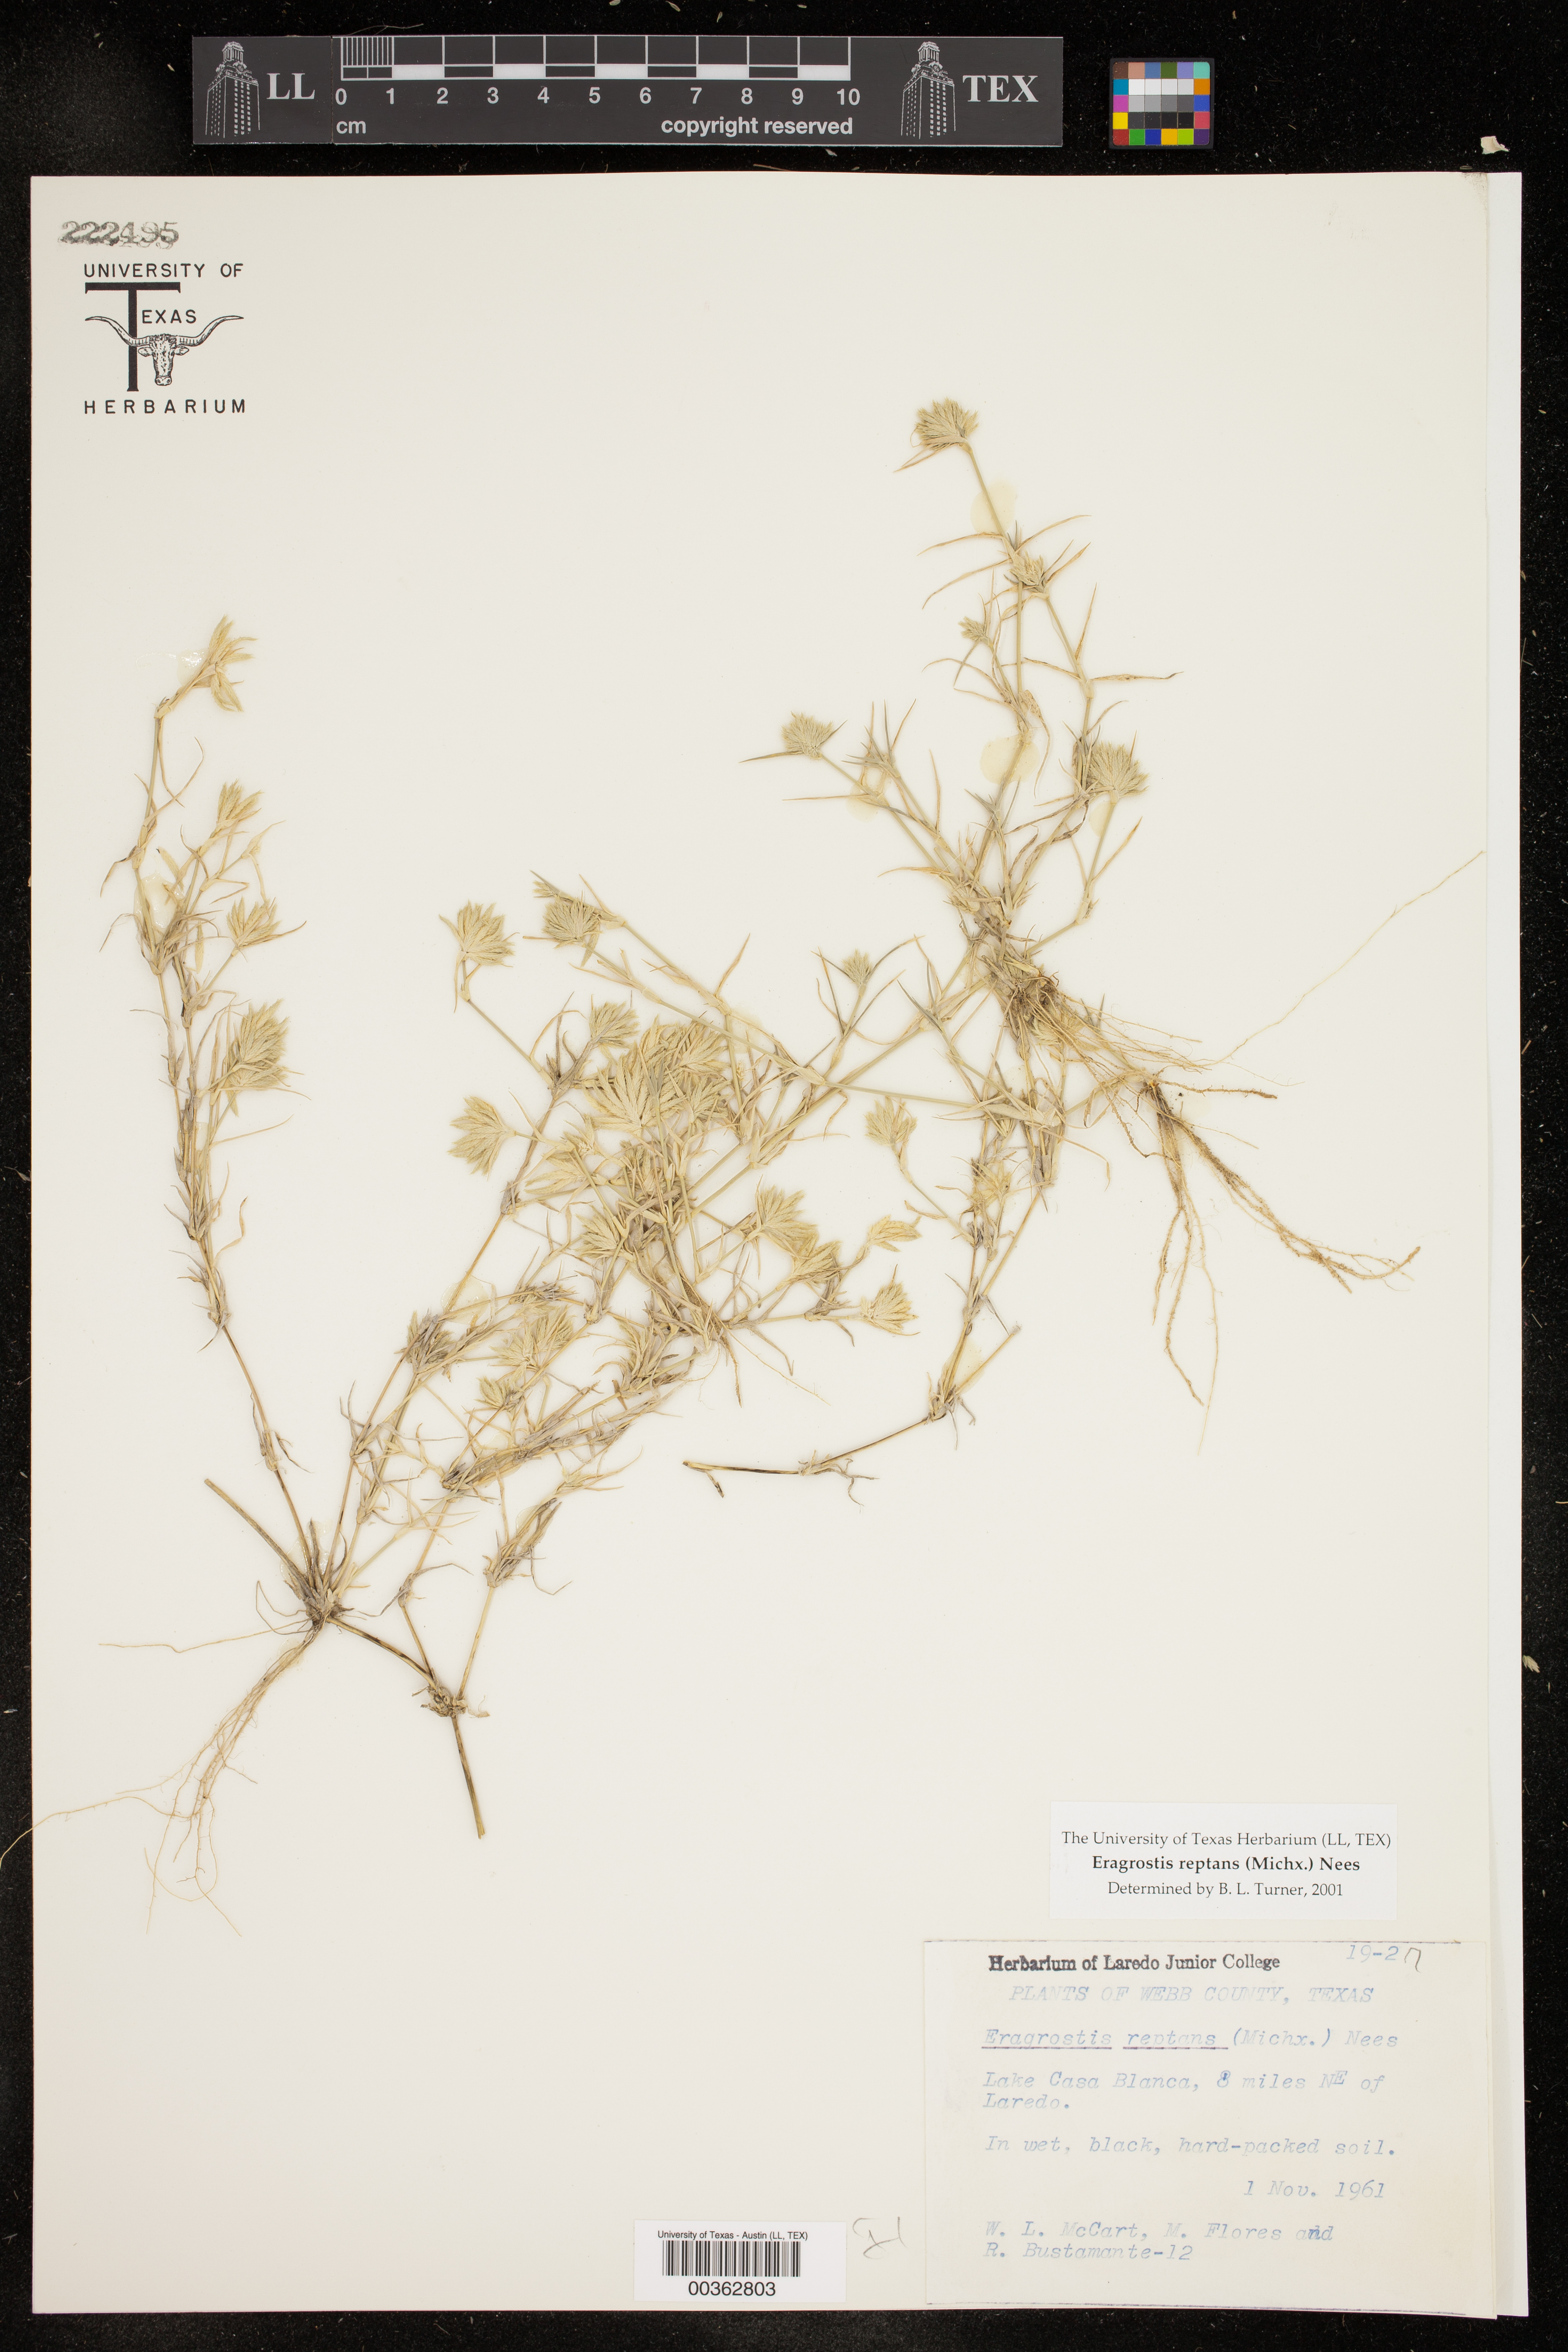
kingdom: Plantae
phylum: Tracheophyta
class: Liliopsida
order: Poales
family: Poaceae
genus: Eragrostis
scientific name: Eragrostis reptans
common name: Creeping love grass
